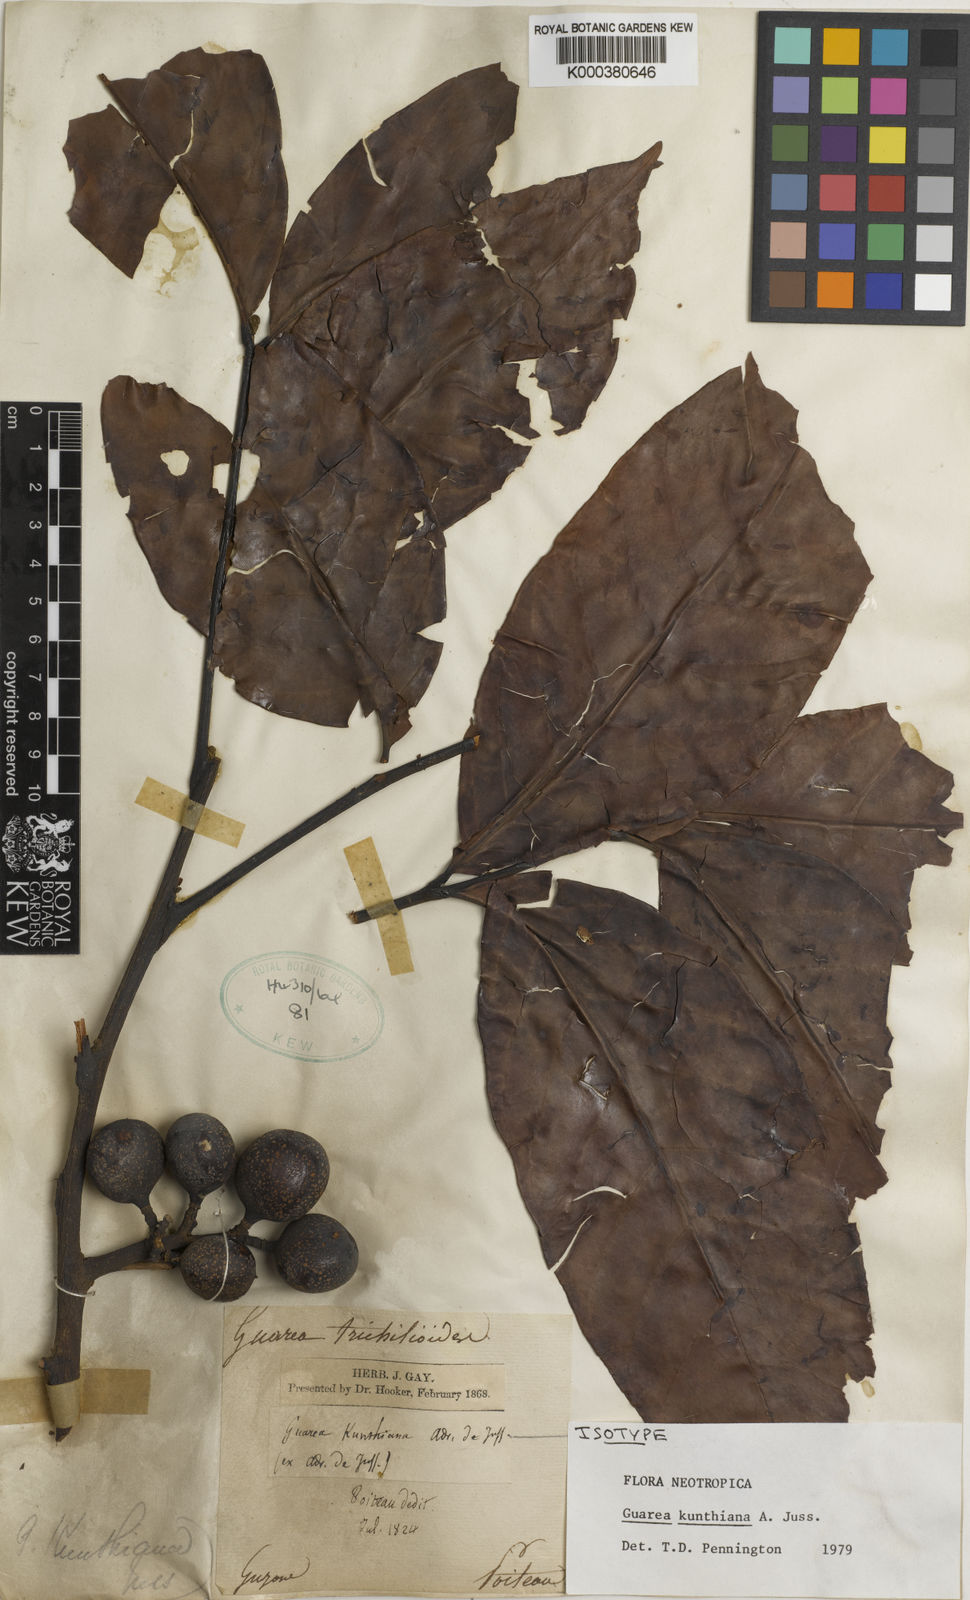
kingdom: Plantae
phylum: Tracheophyta
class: Magnoliopsida
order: Sapindales
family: Meliaceae
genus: Guarea
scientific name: Guarea kunthiana
